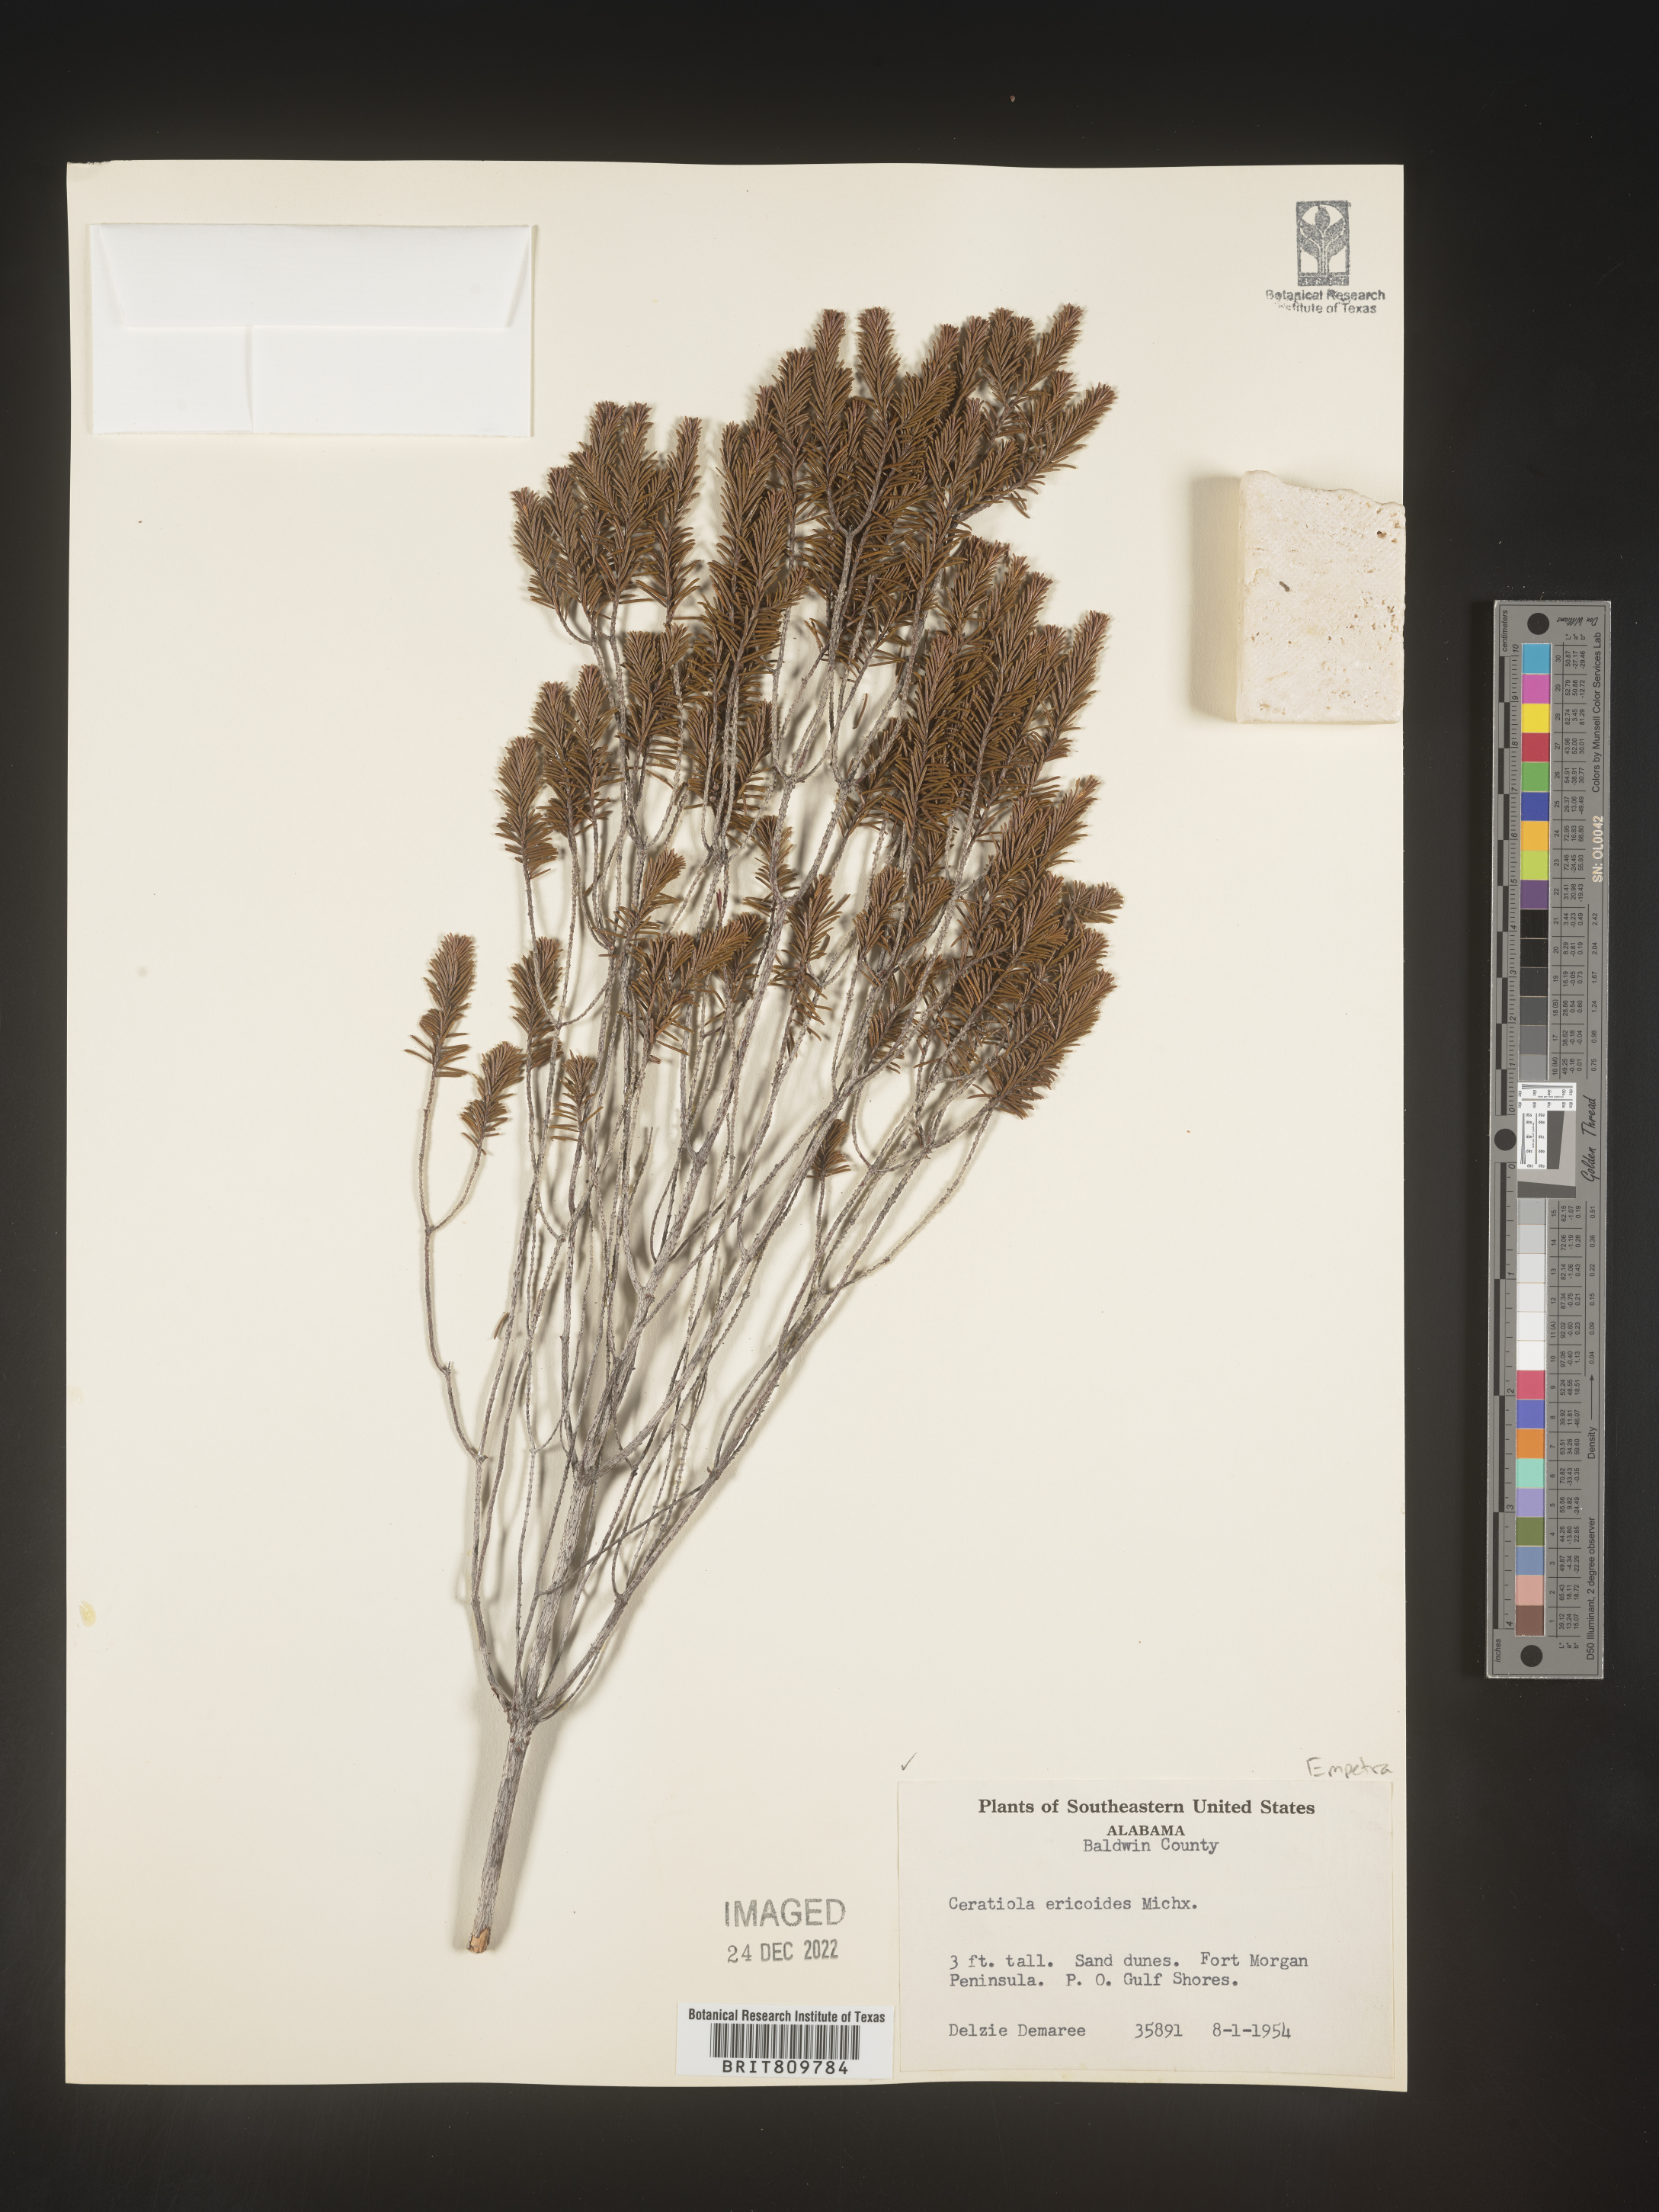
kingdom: Plantae
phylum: Tracheophyta
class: Magnoliopsida
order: Ericales
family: Ericaceae
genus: Ceratiola
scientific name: Ceratiola ericoides
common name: Sandhill-rosemary
